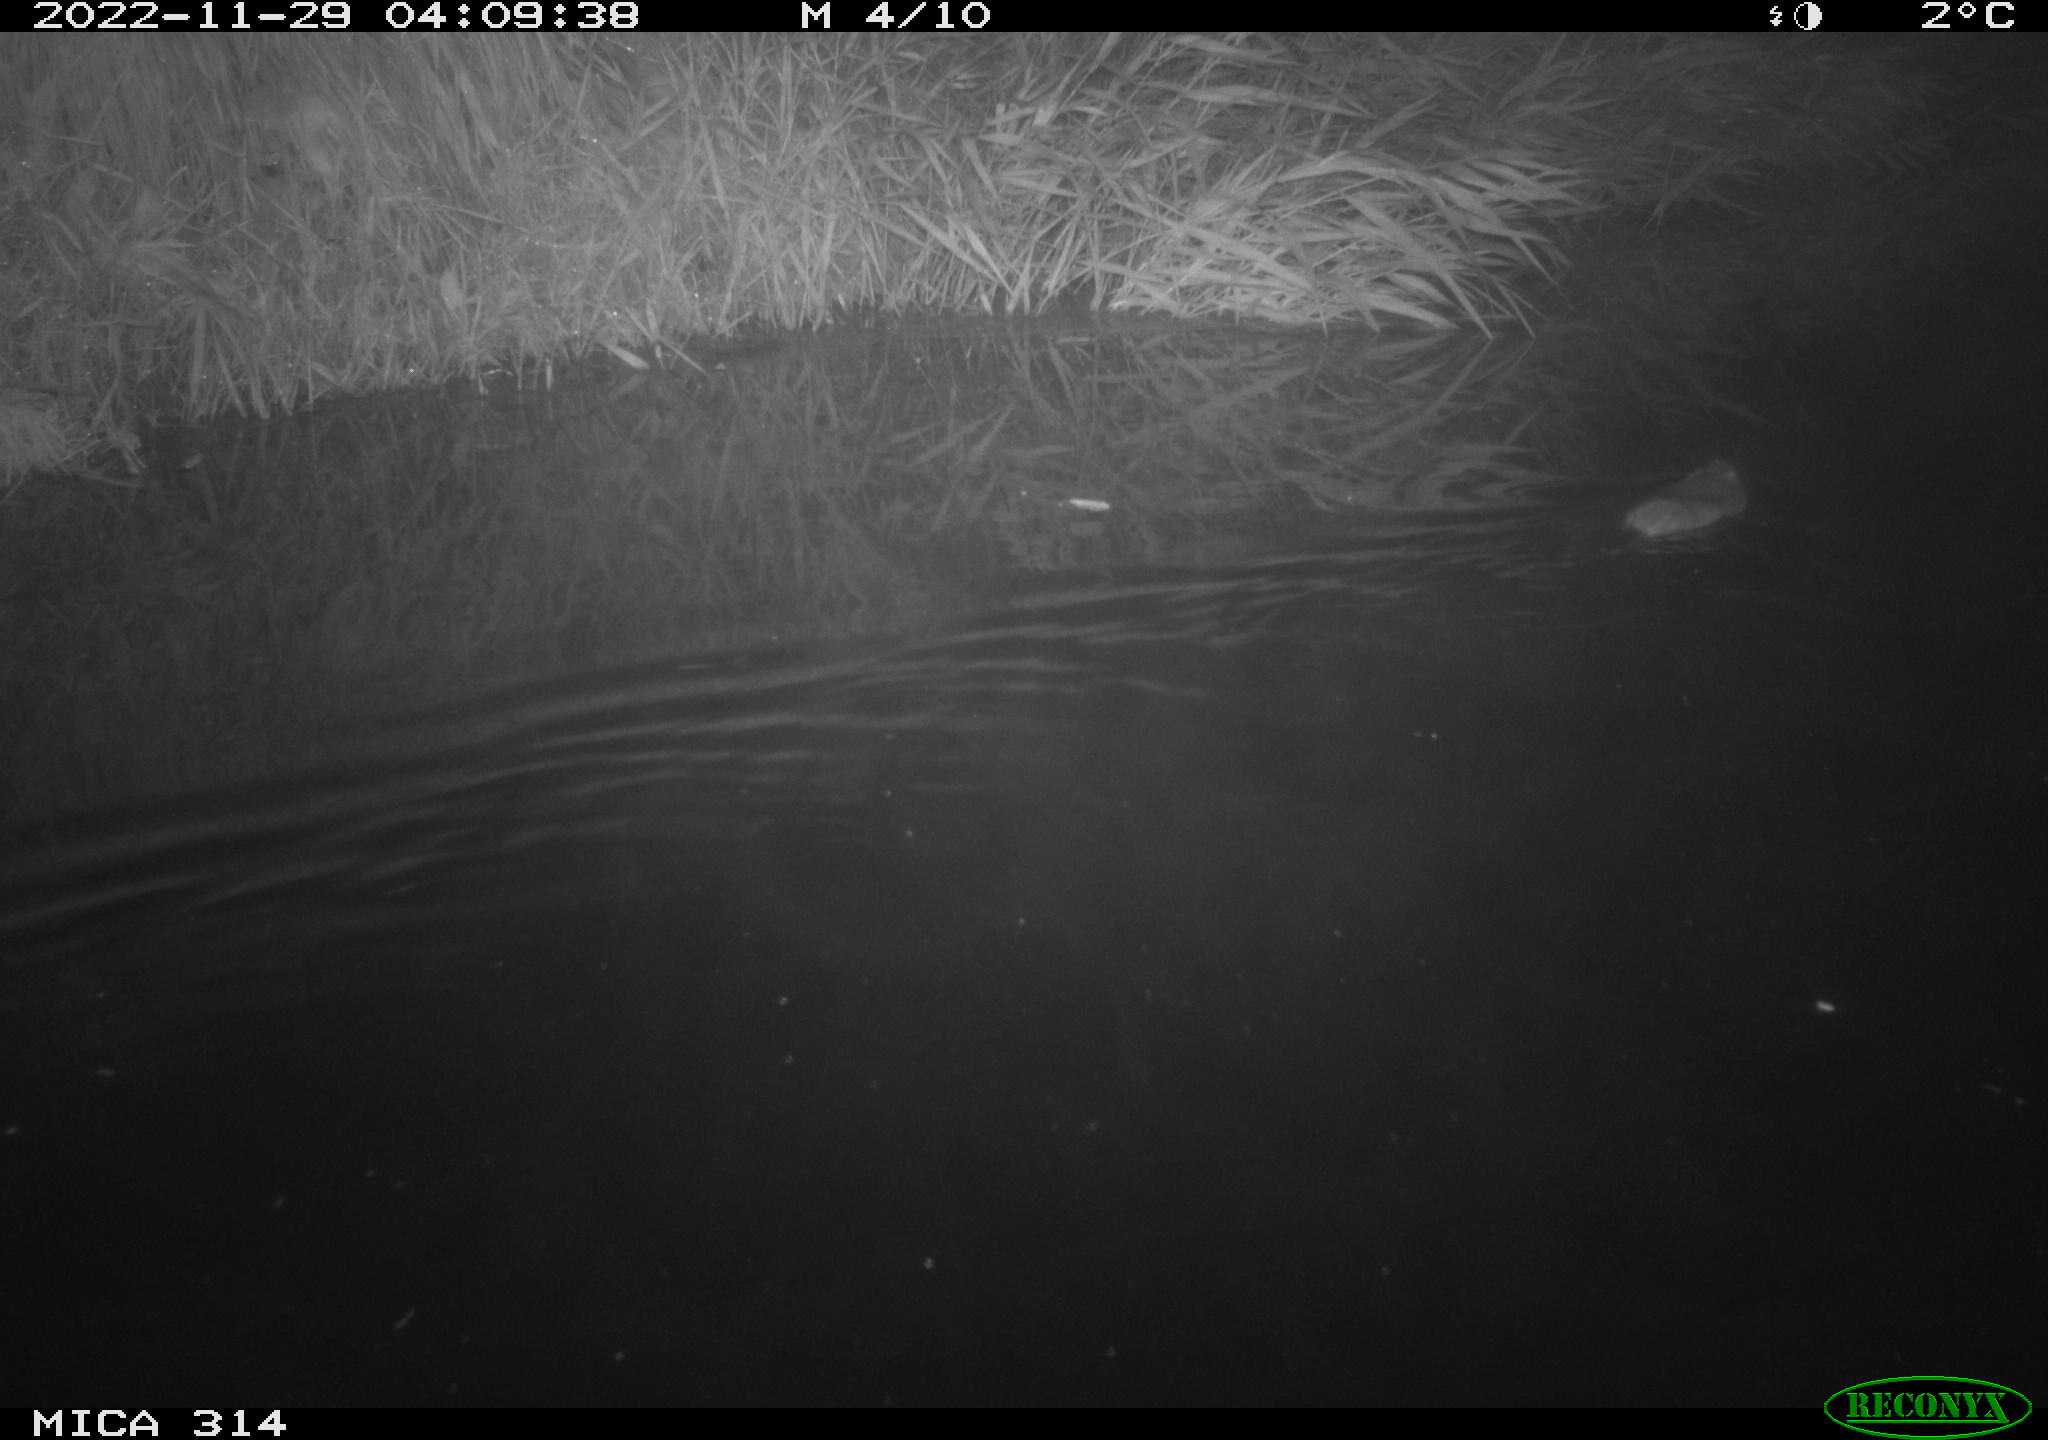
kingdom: Animalia
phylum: Chordata
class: Mammalia
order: Rodentia
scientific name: Rodentia
